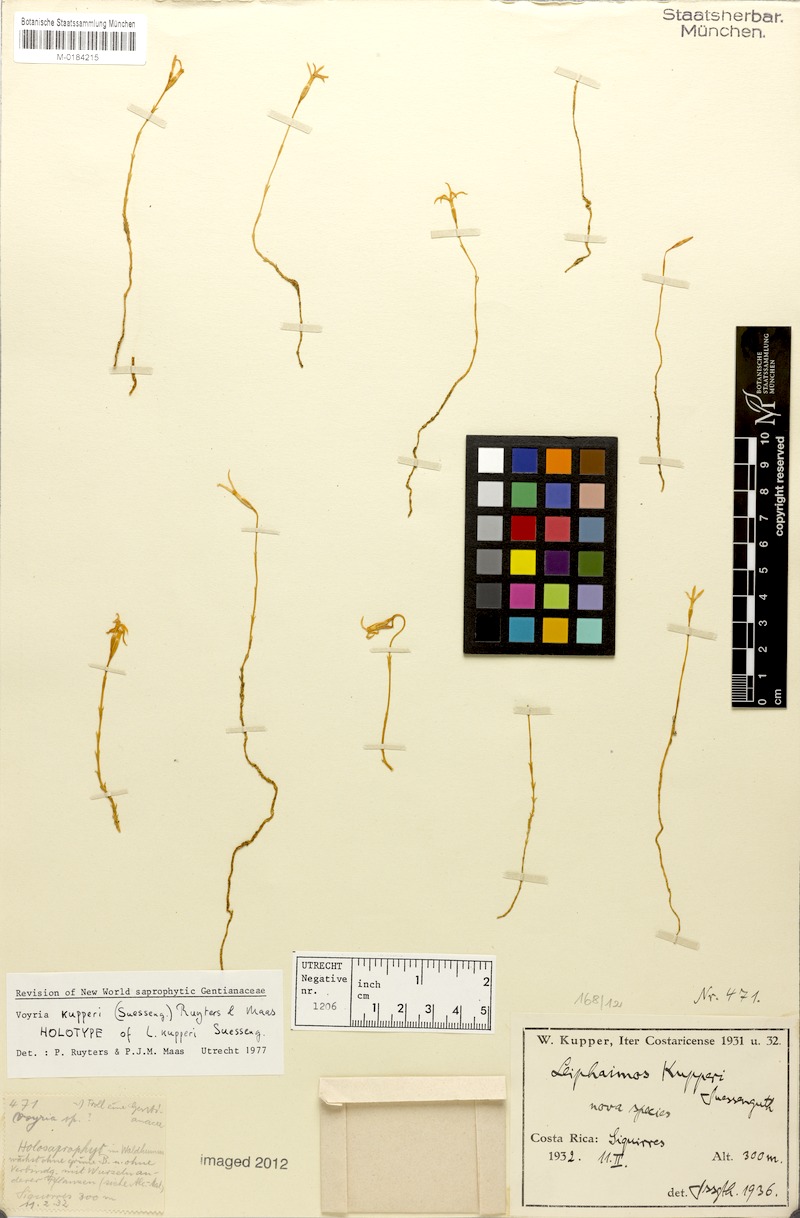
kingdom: Plantae
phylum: Tracheophyta
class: Magnoliopsida
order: Gentianales
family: Gentianaceae
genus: Voyria
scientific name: Voyria kupperi
